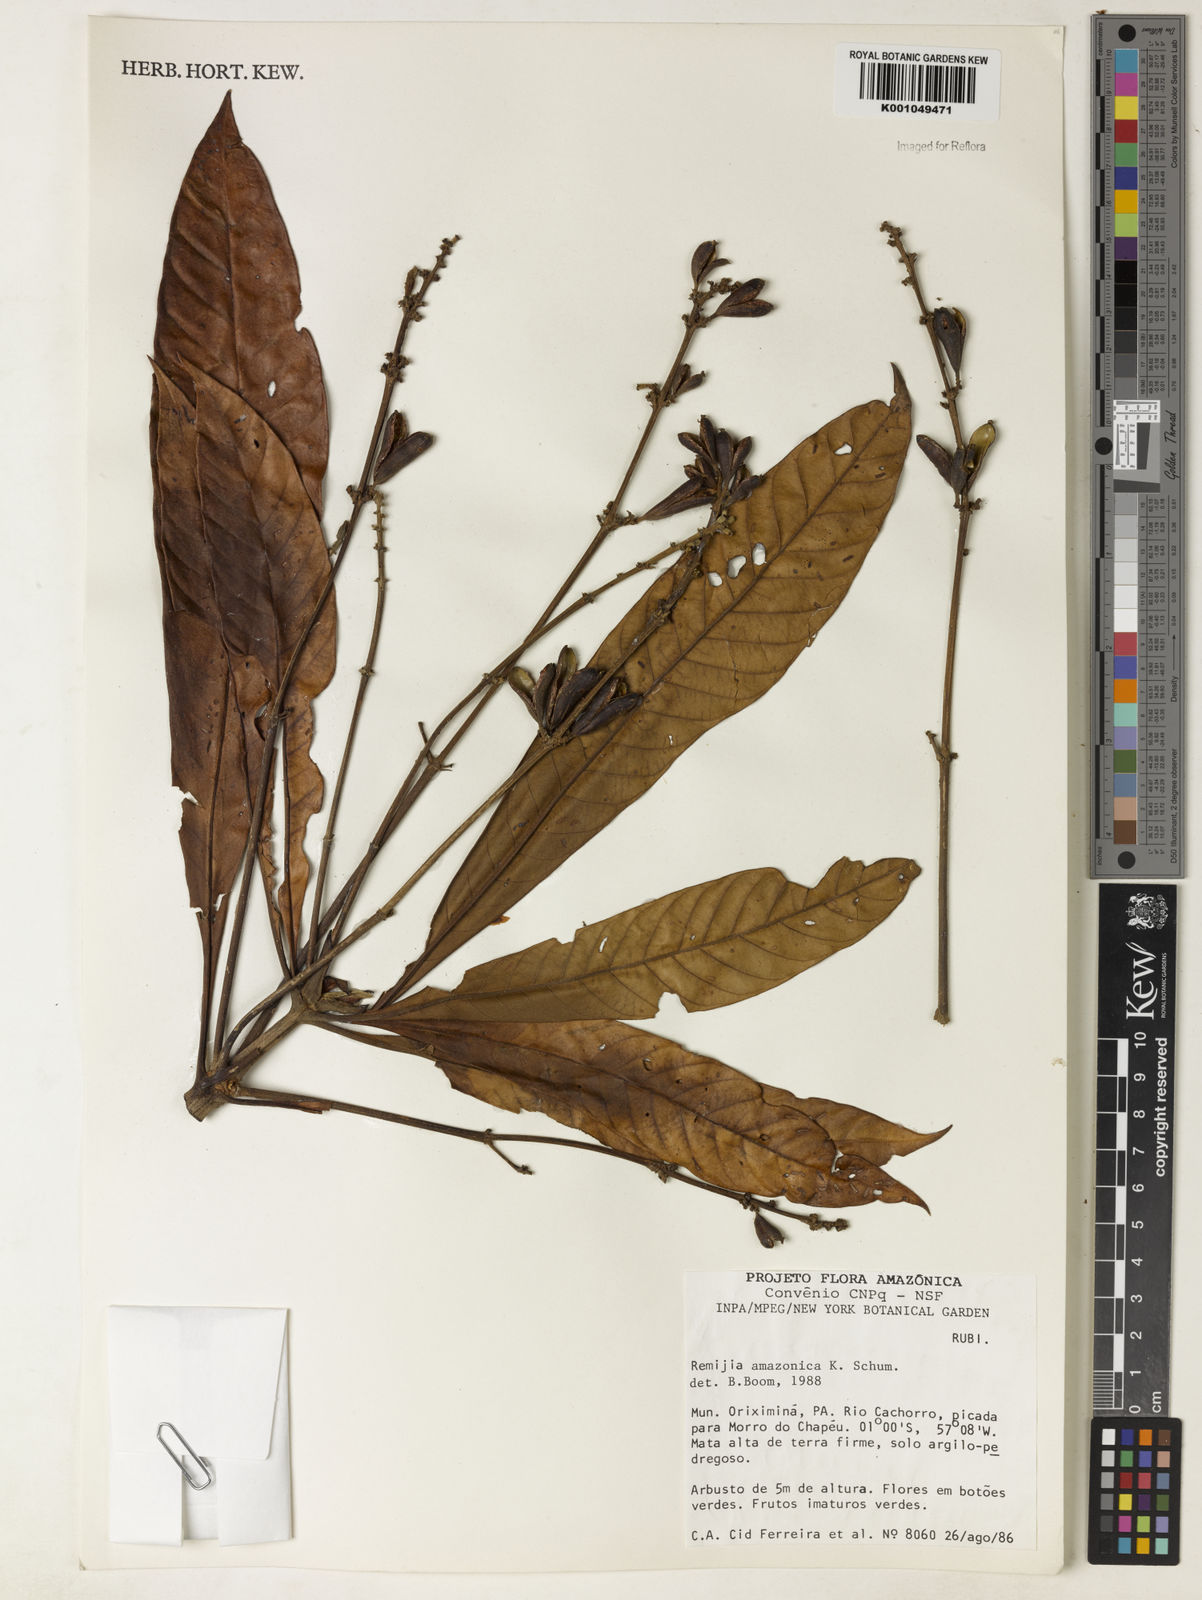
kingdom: Plantae
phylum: Tracheophyta
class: Magnoliopsida
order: Gentianales
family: Rubiaceae
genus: Remijia
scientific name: Remijia amazonica
